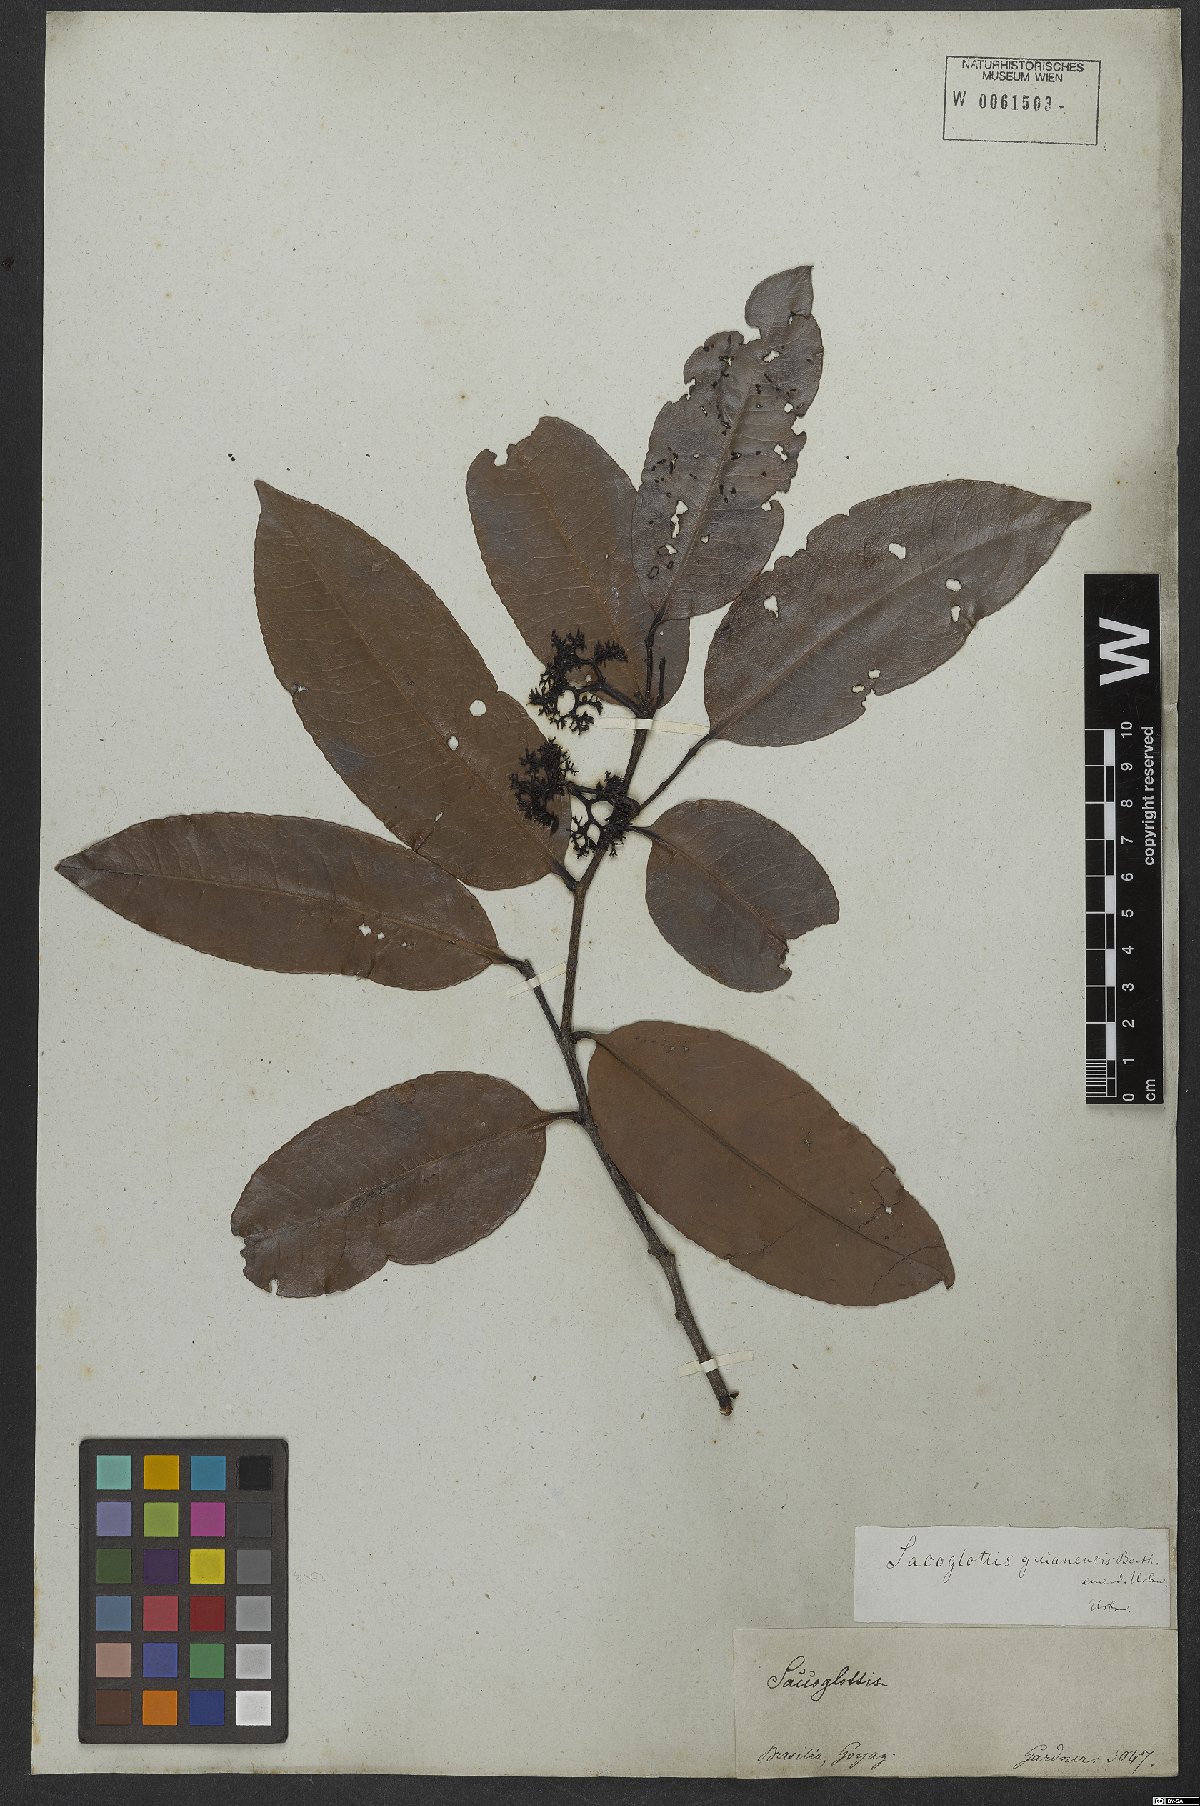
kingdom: Plantae
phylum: Tracheophyta
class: Magnoliopsida
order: Malpighiales
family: Humiriaceae
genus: Sacoglottis
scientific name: Sacoglottis guianensis
